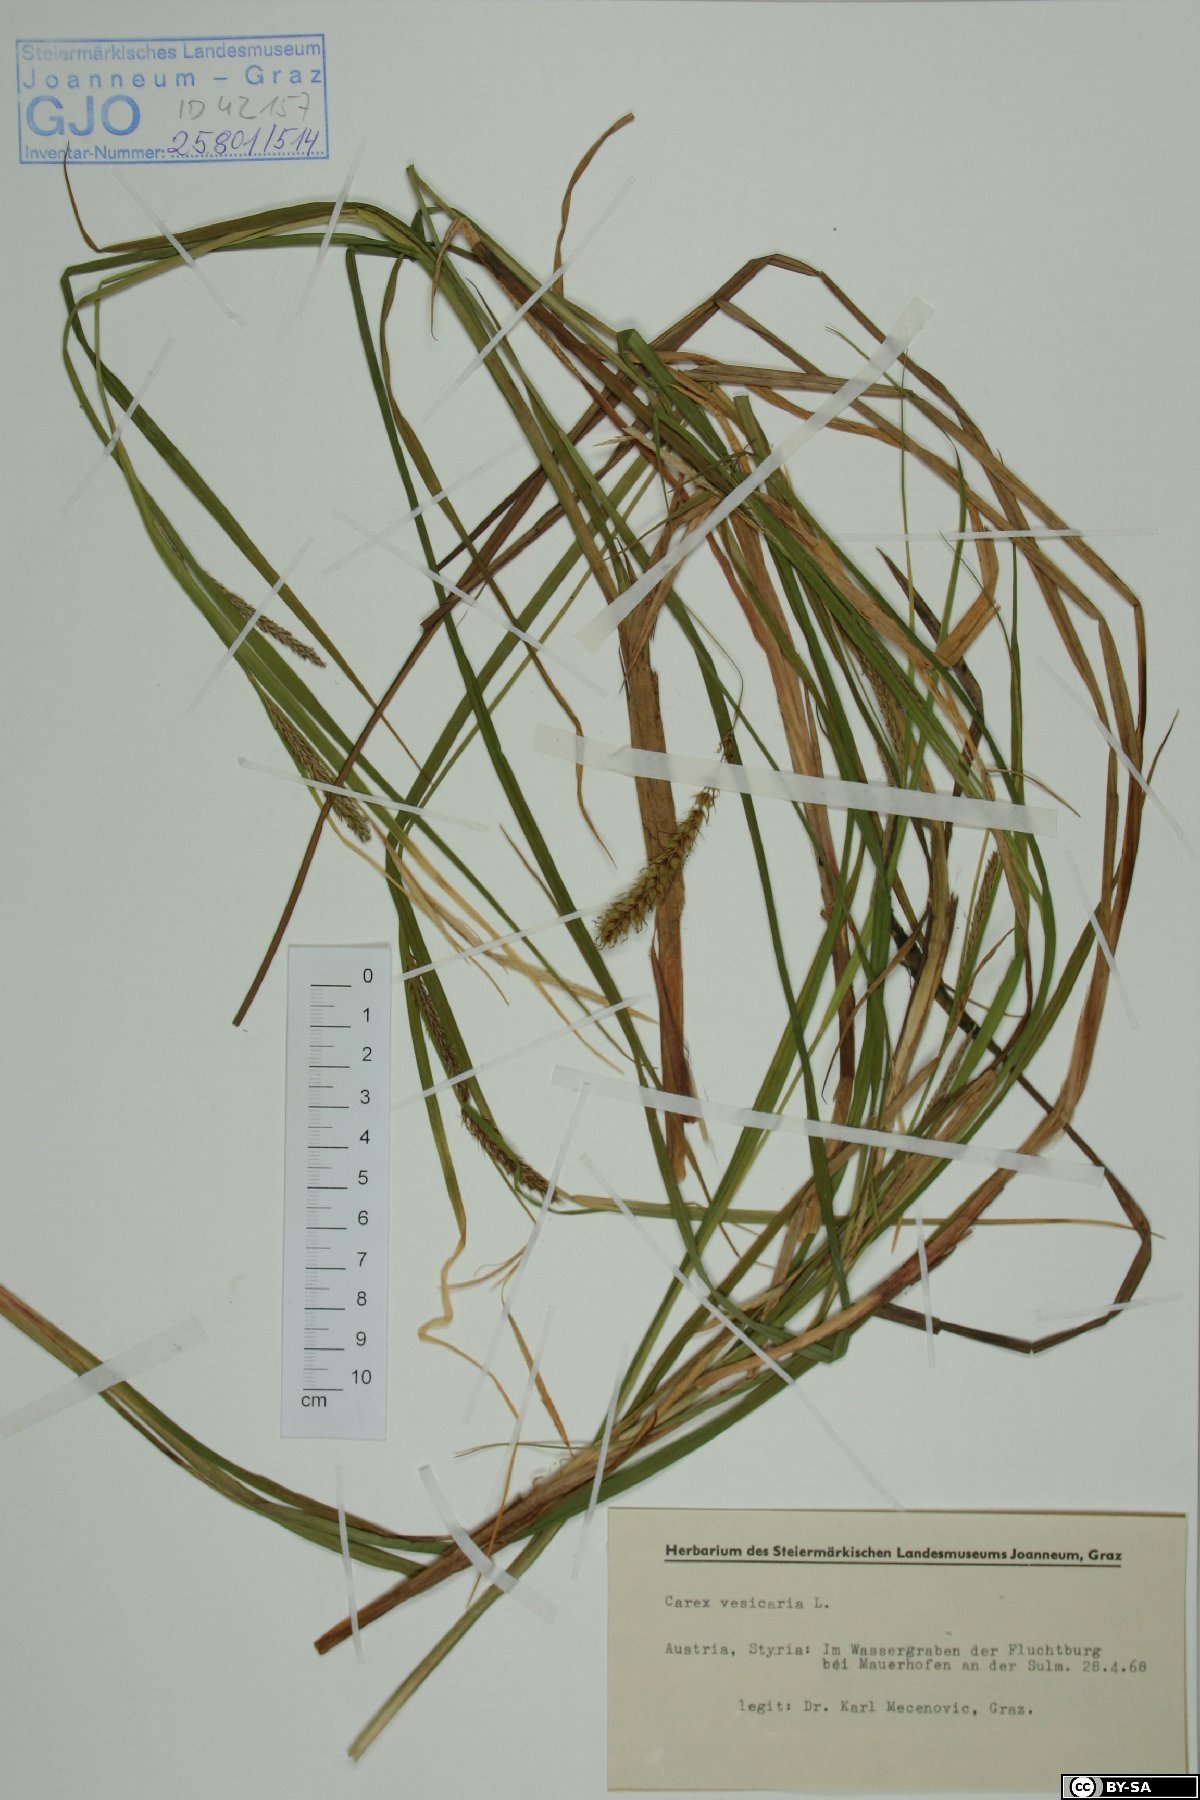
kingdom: Plantae
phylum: Tracheophyta
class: Liliopsida
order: Poales
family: Cyperaceae
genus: Carex
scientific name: Carex vesicaria
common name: Bladder-sedge
